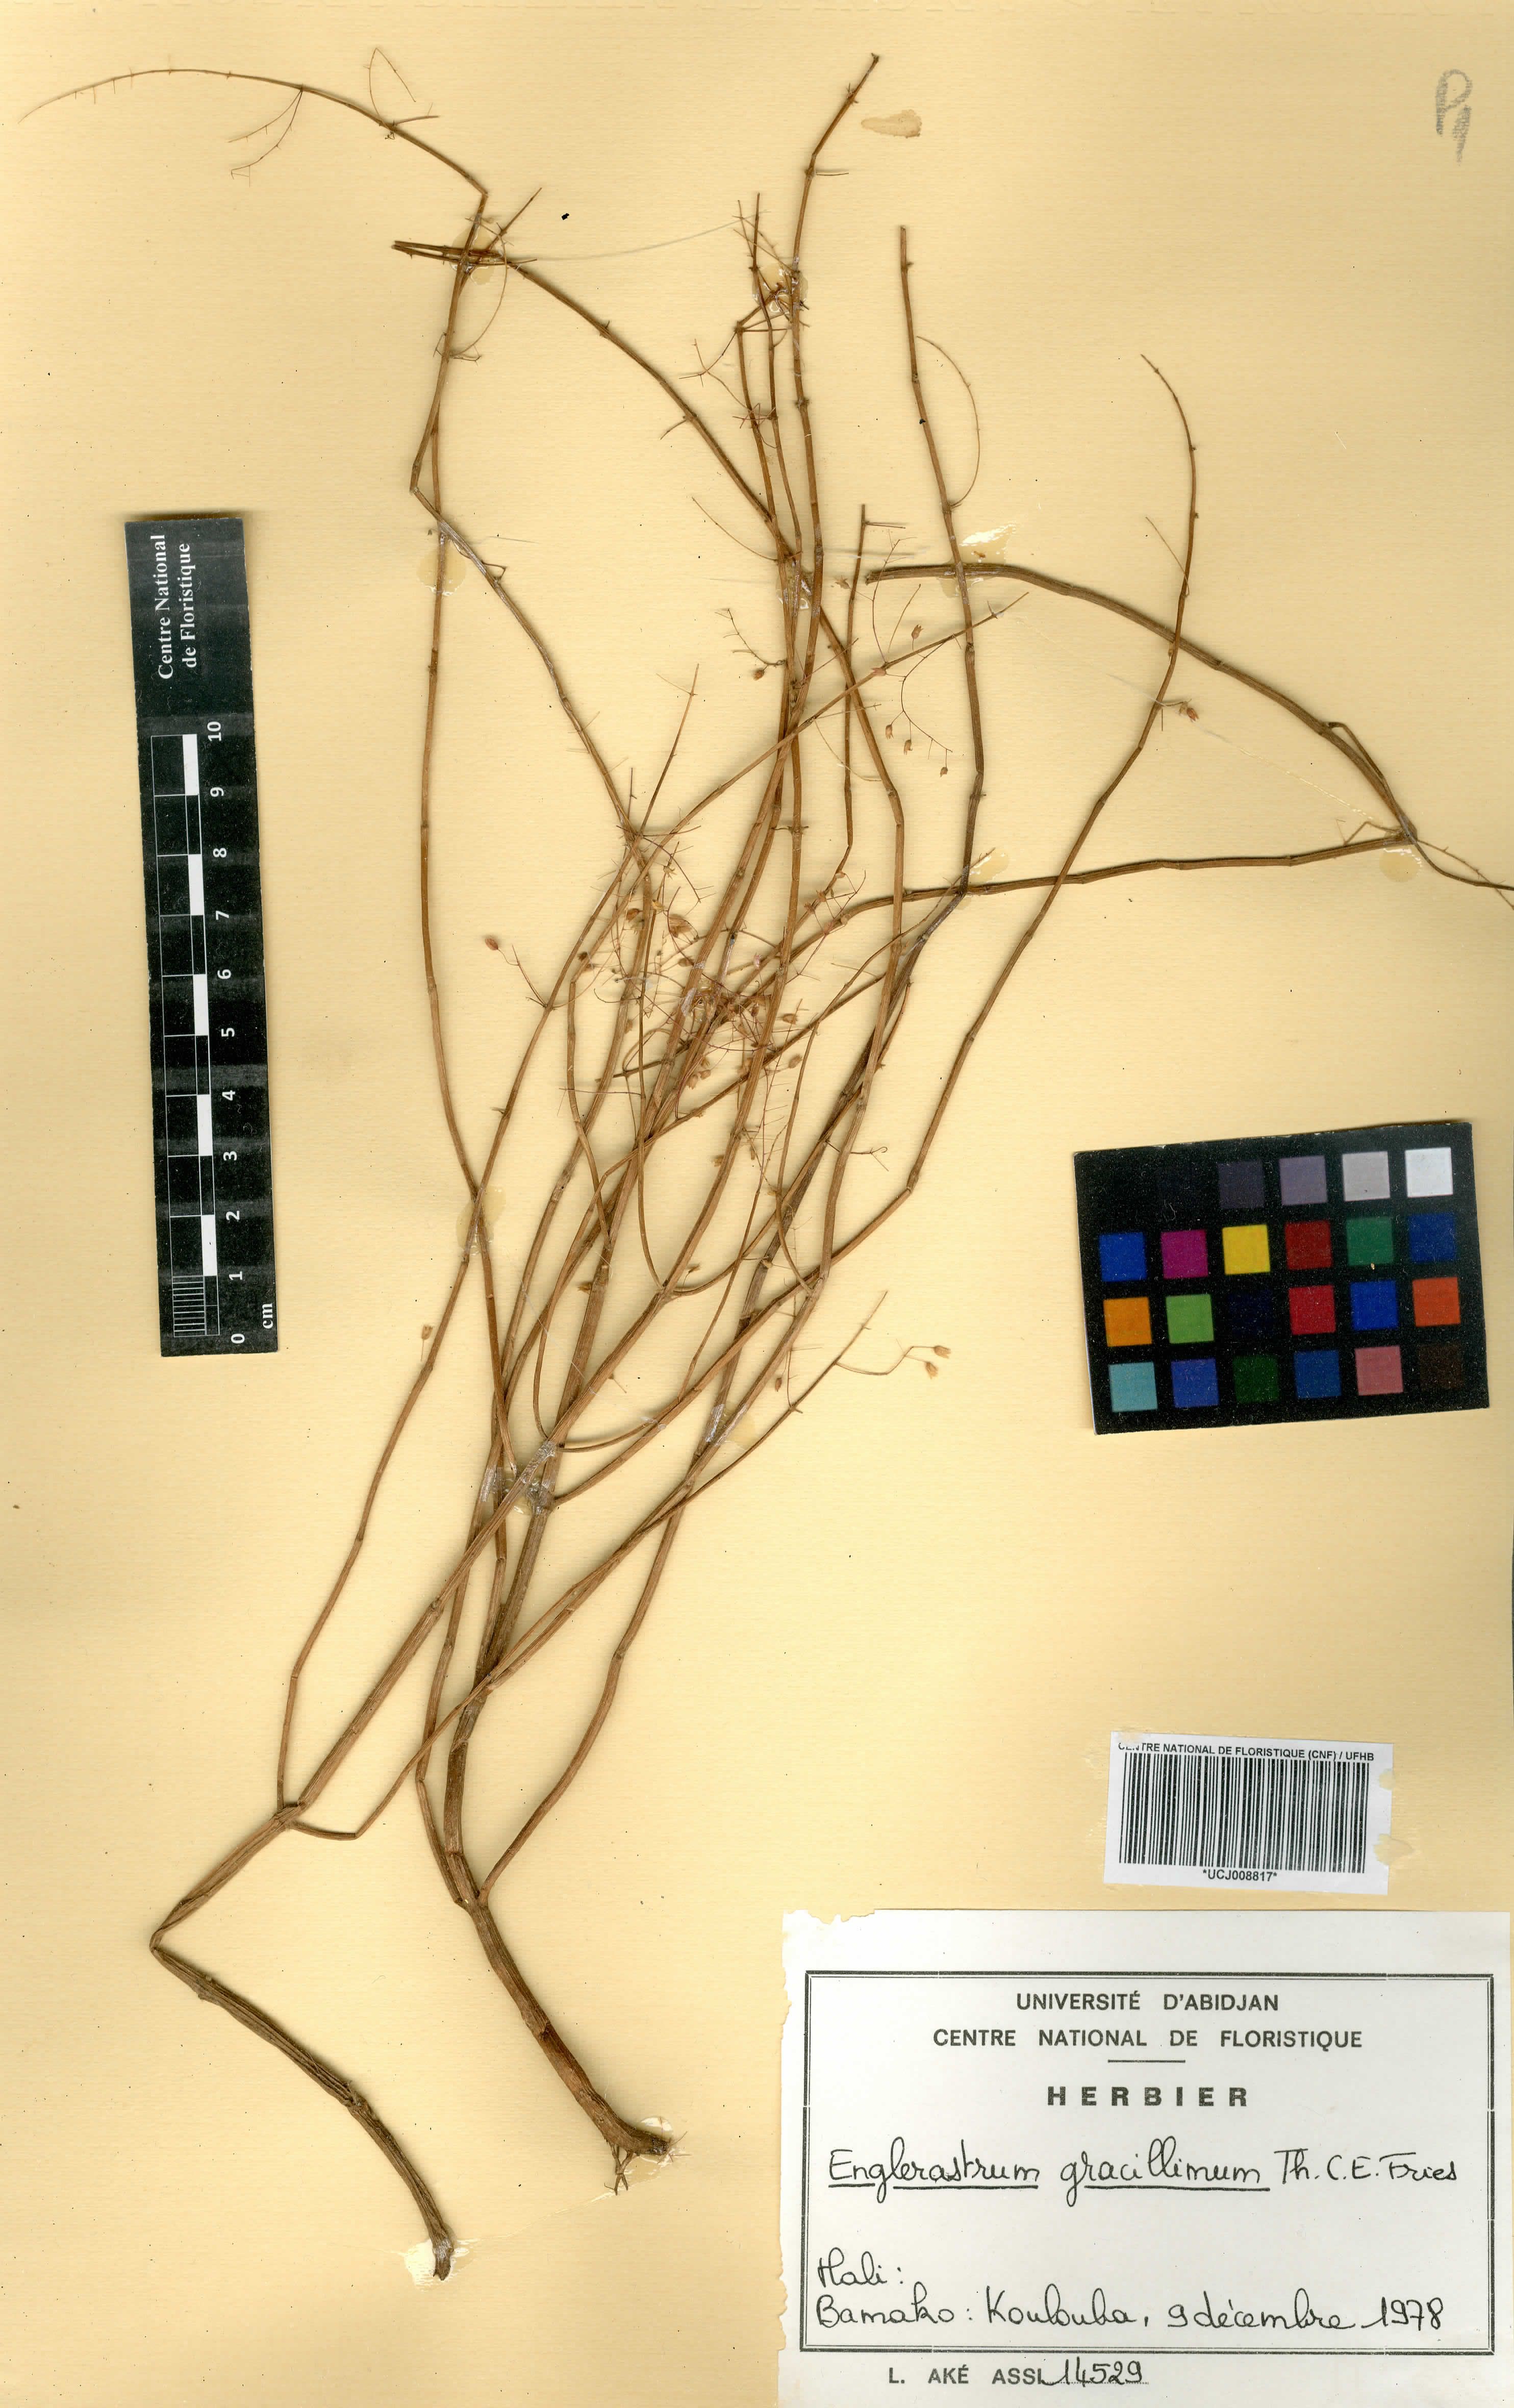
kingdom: Plantae
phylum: Tracheophyta
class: Magnoliopsida
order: Lamiales
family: Lamiaceae
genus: Coleus
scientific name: Coleus gracillimus
